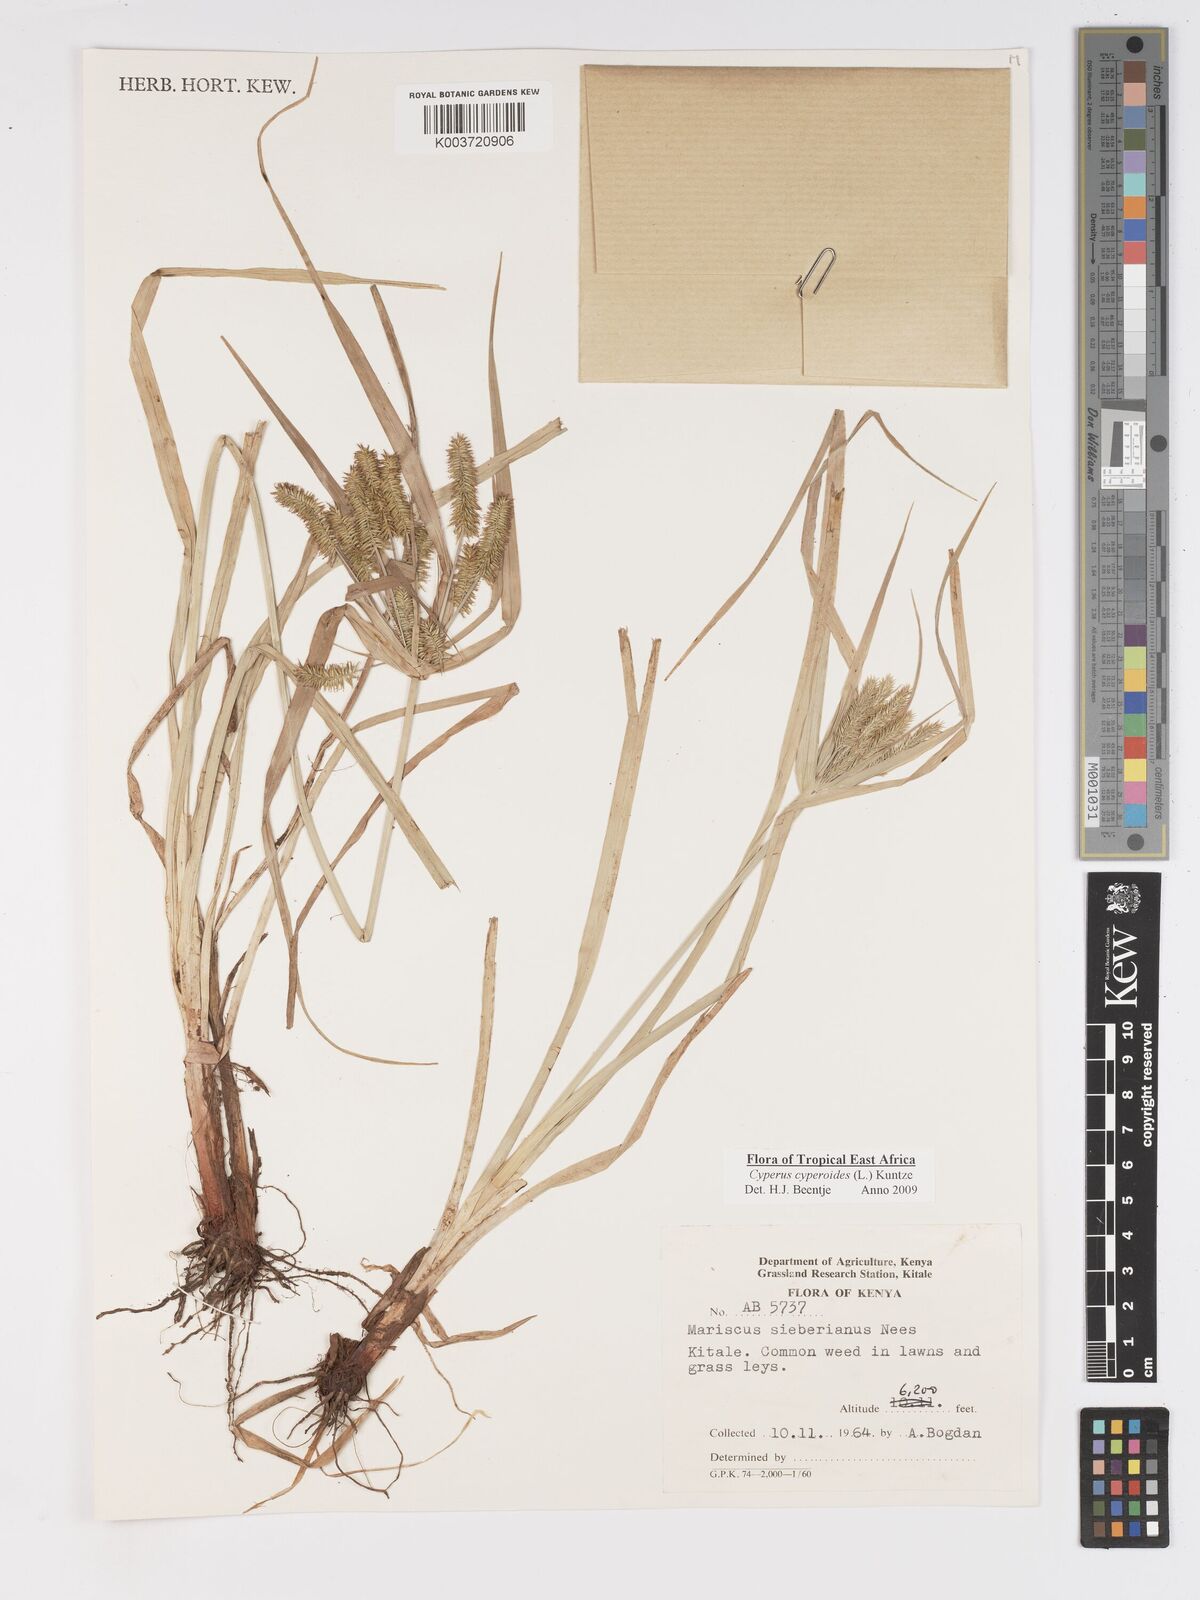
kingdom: Plantae
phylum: Tracheophyta
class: Liliopsida
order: Poales
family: Cyperaceae
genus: Cyperus
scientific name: Cyperus cyperoides
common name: Pacific island flat sedge
